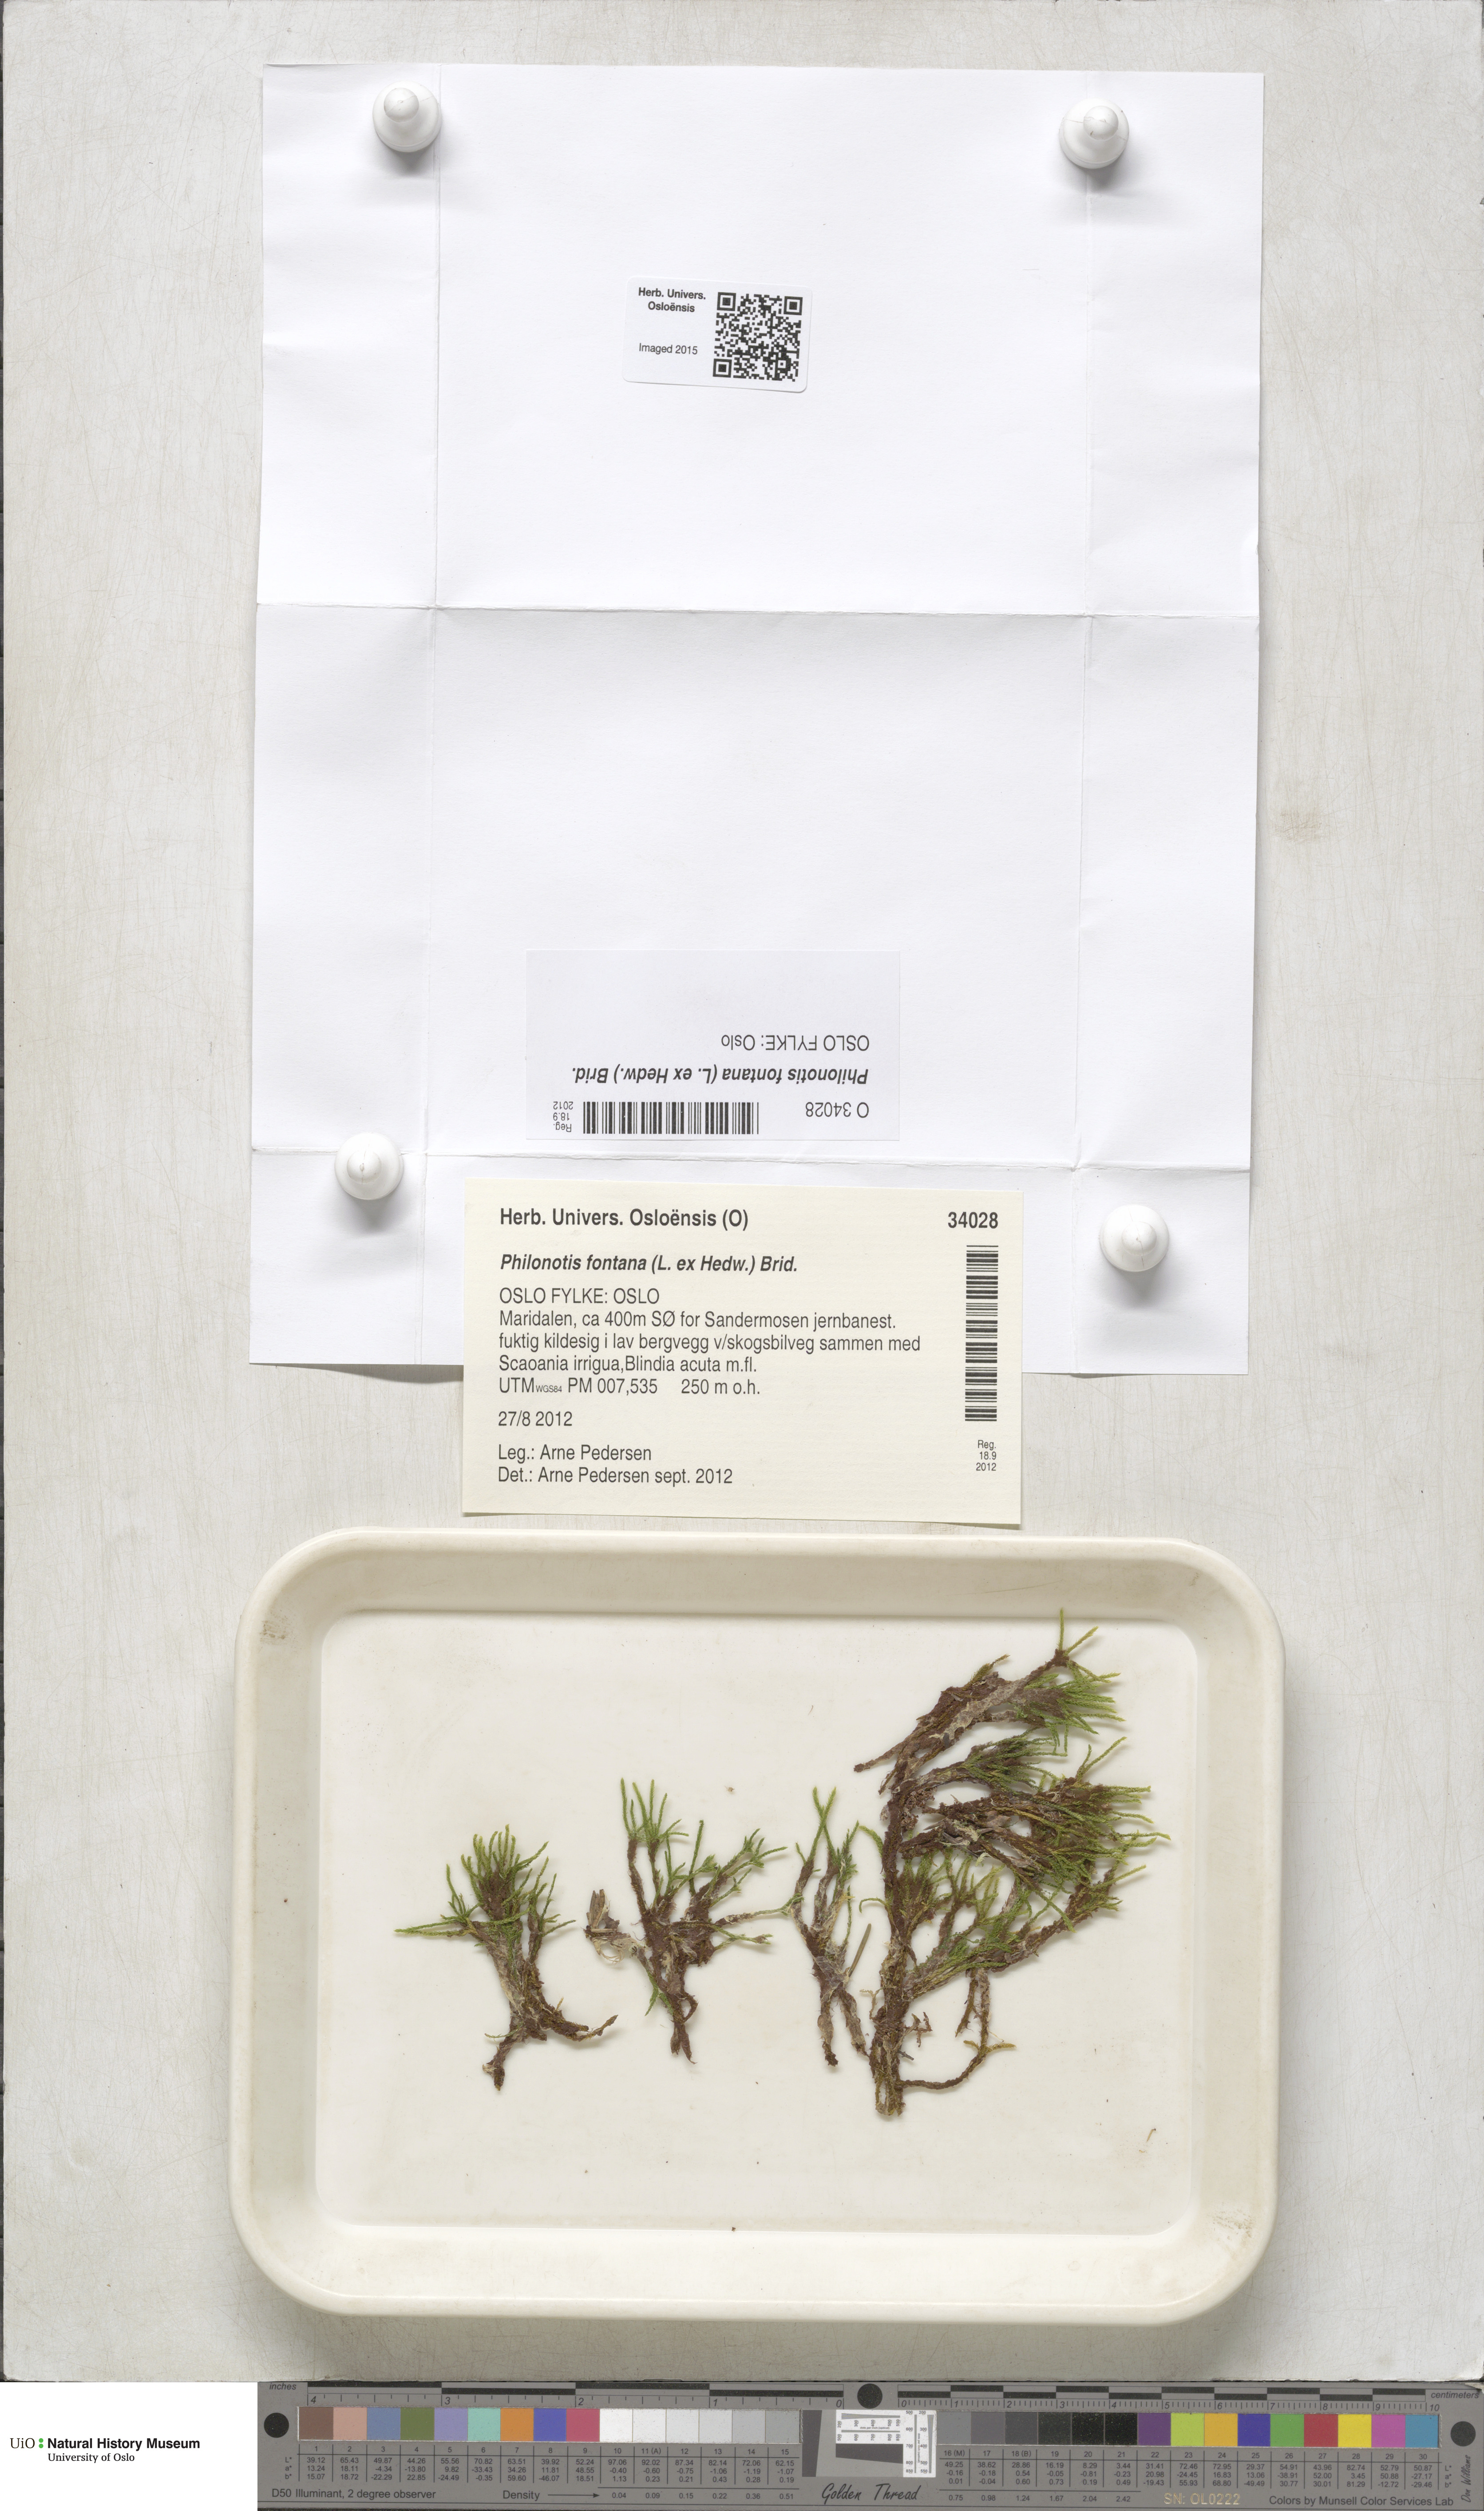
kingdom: Plantae
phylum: Bryophyta
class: Bryopsida
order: Bartramiales
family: Bartramiaceae
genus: Philonotis
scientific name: Philonotis fontana
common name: Fountain apple-moss
